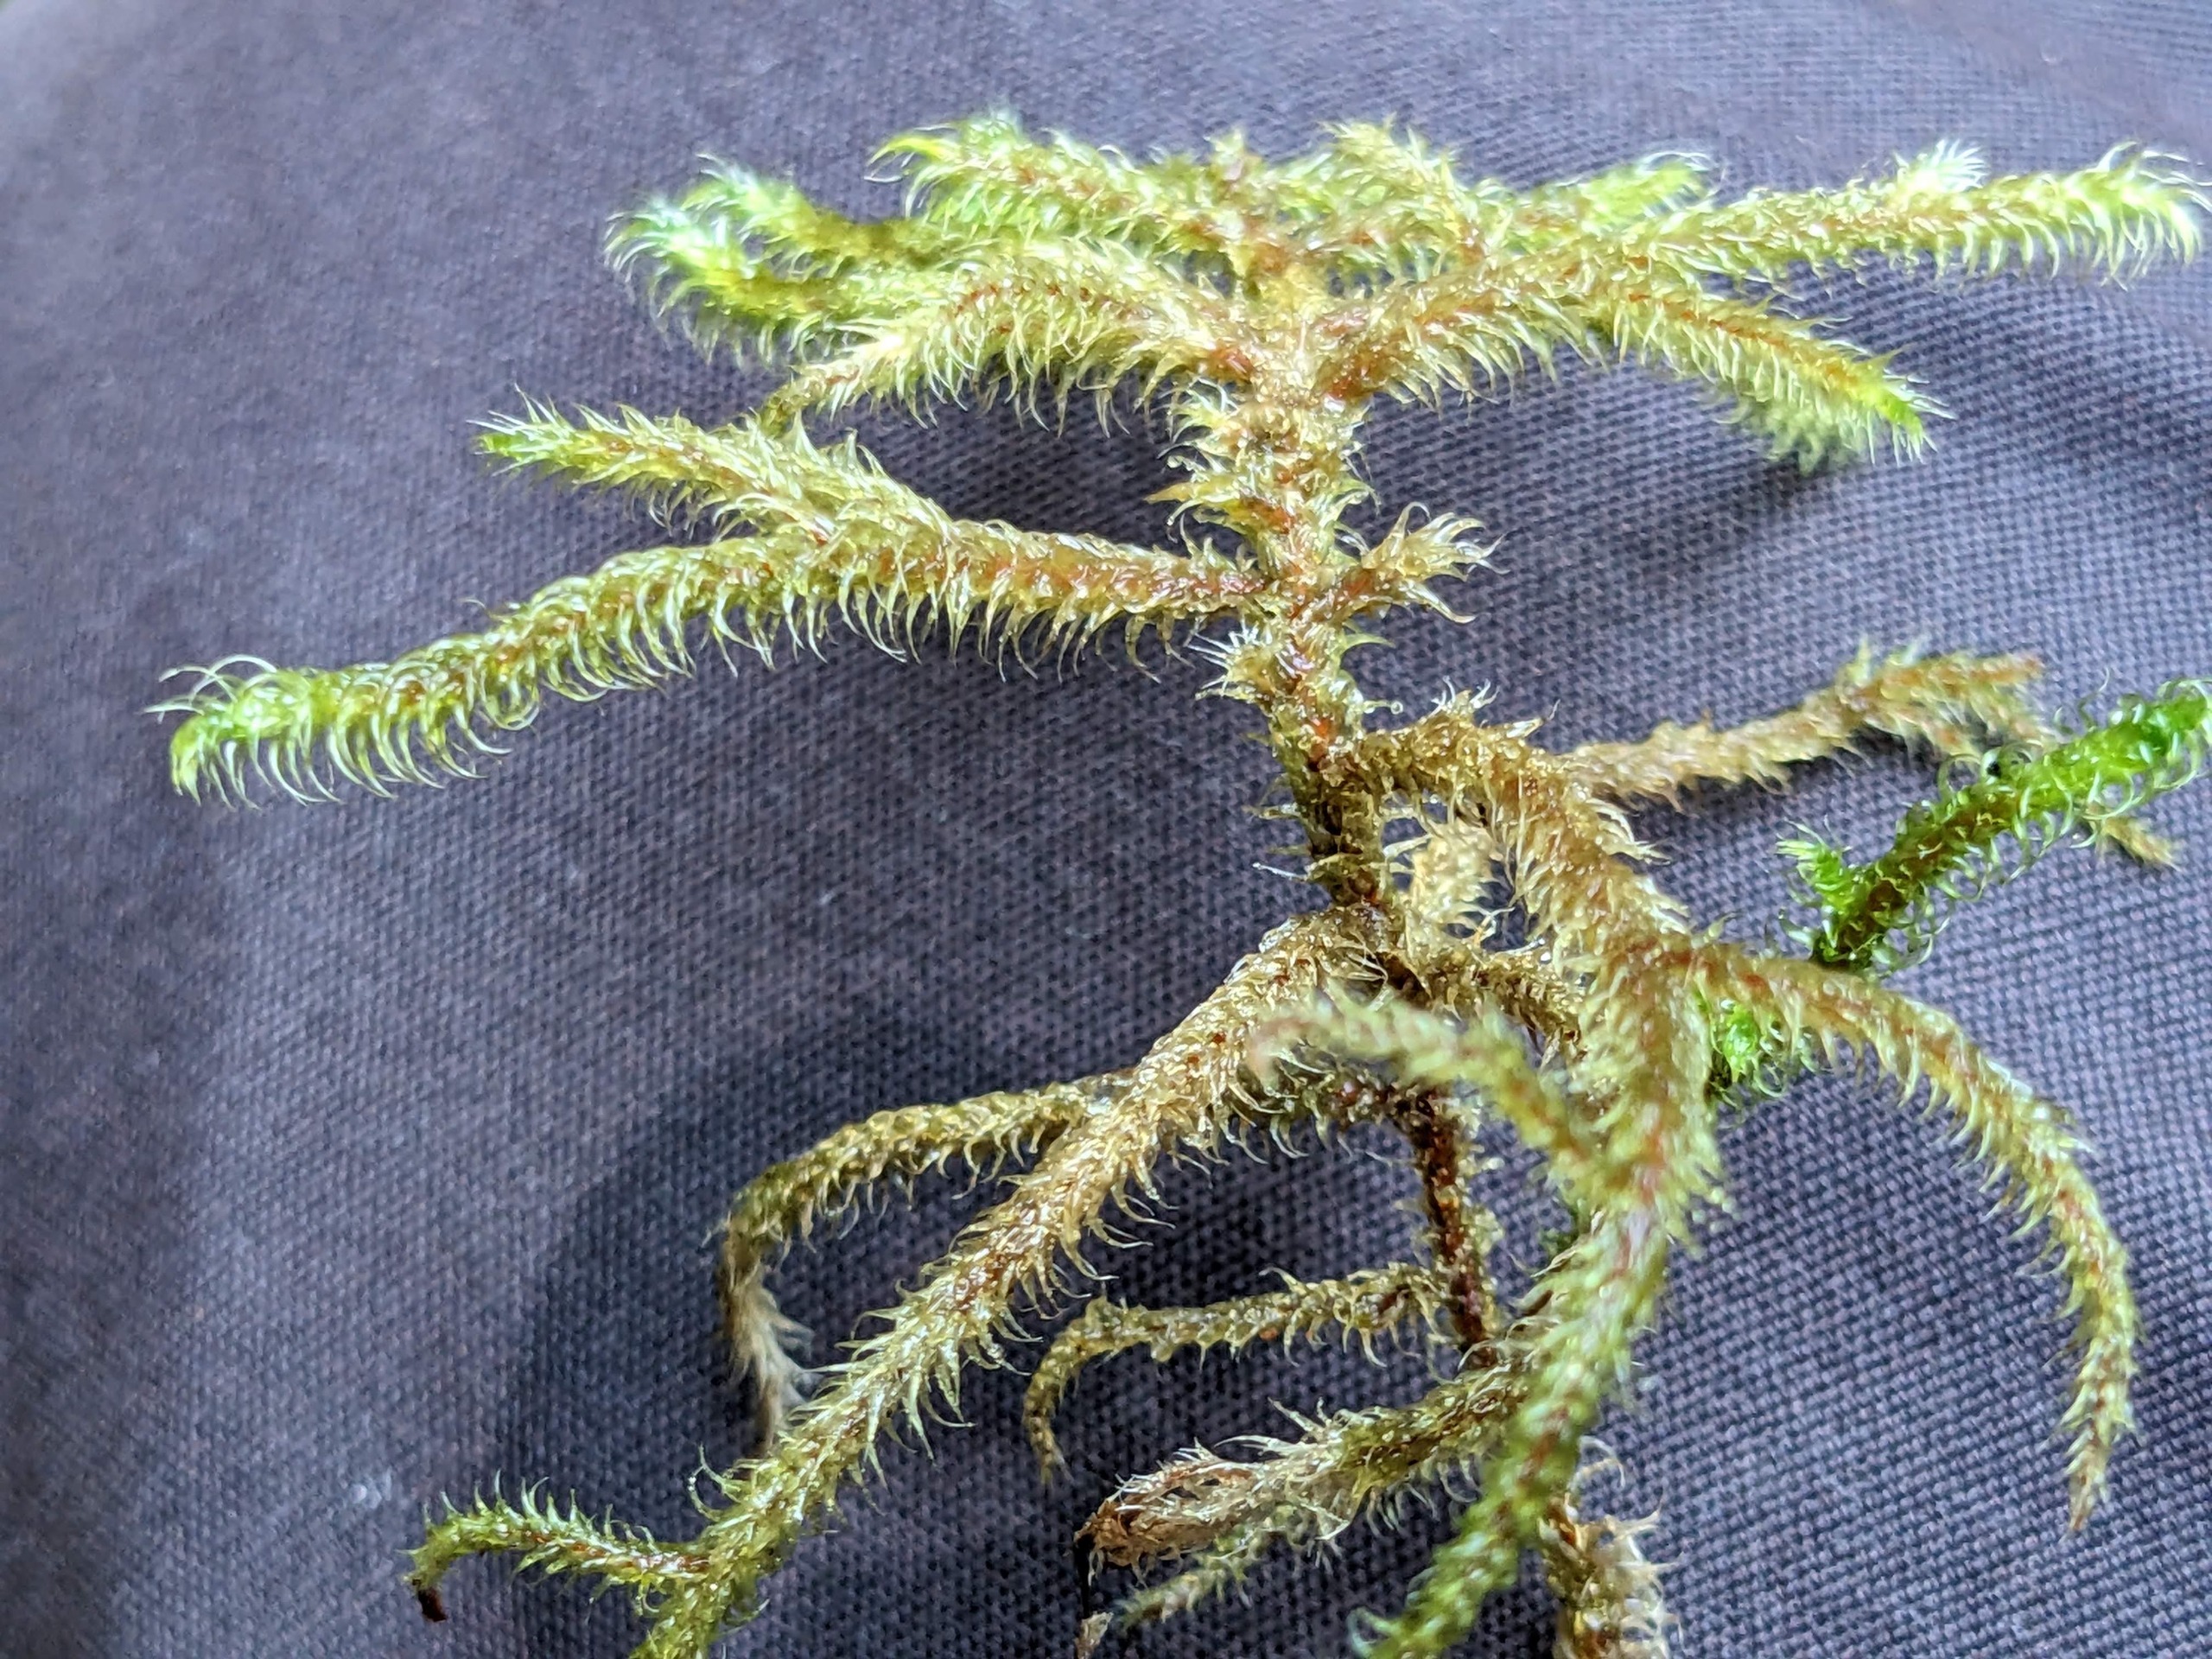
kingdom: Plantae
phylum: Bryophyta
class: Bryopsida
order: Hypnales
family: Hylocomiaceae
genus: Rhytidiadelphus
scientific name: Rhytidiadelphus loreus
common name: Ulvefod-kransemos
